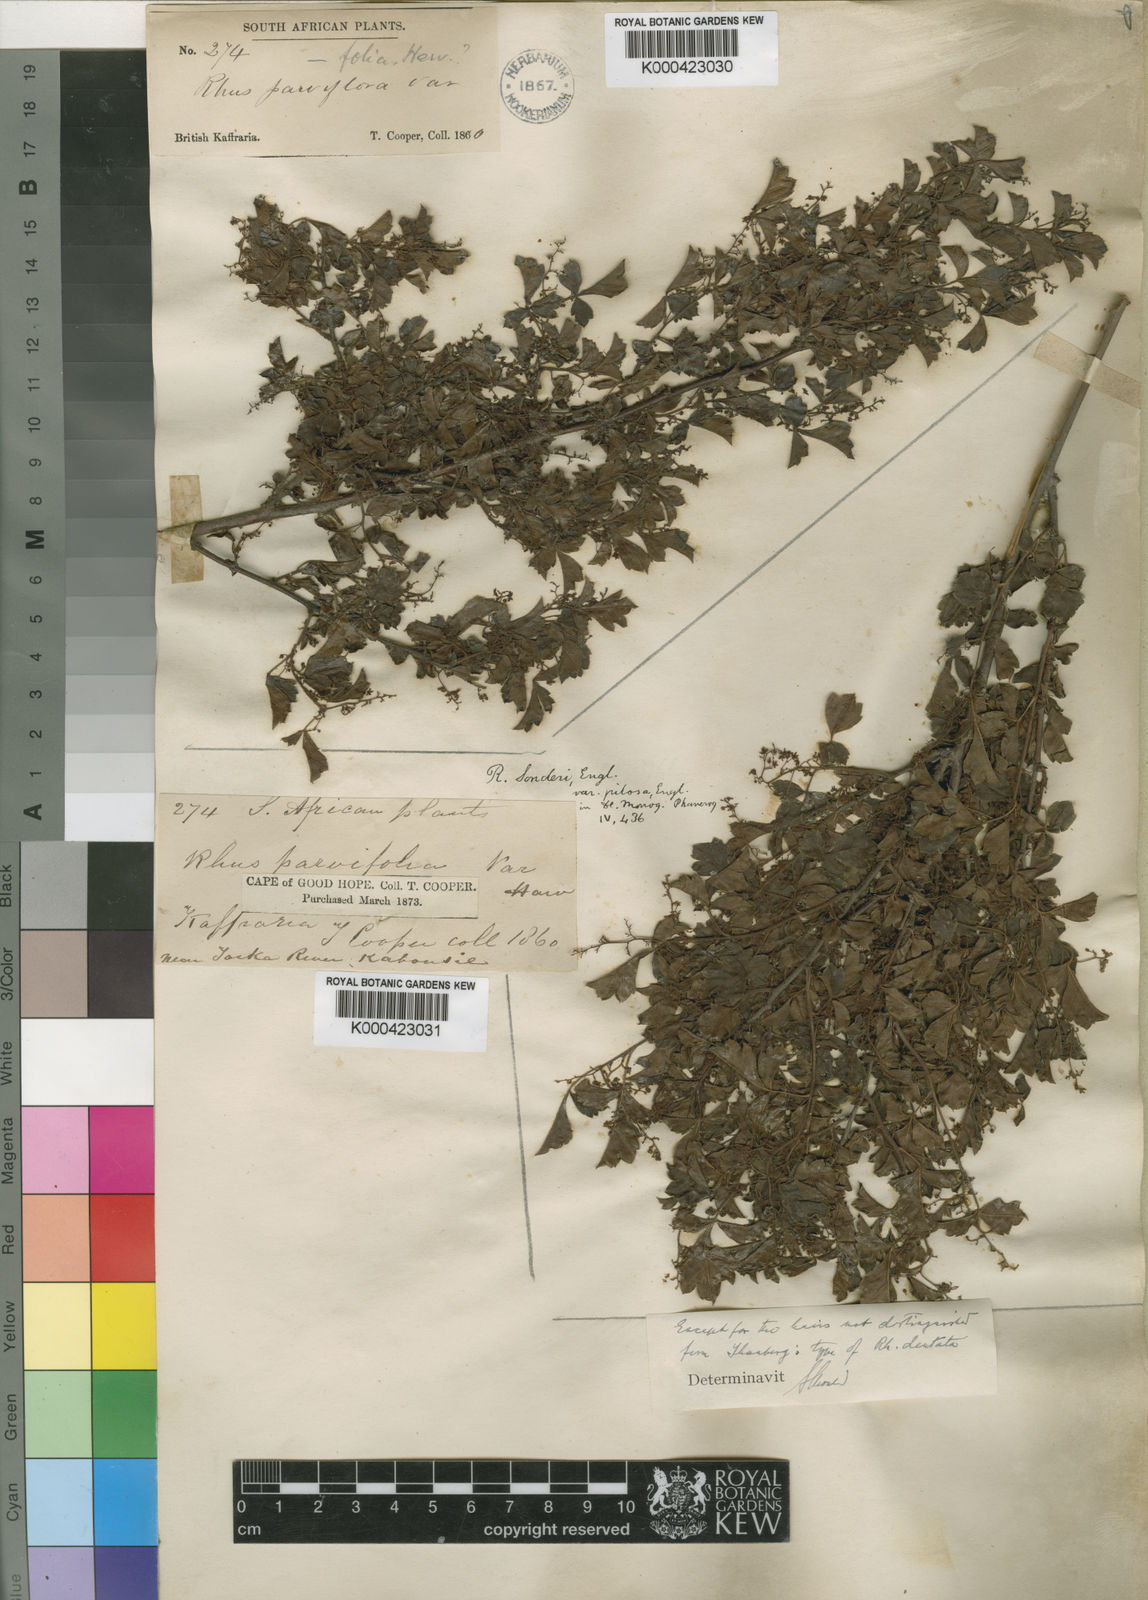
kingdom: Plantae
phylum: Tracheophyta
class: Magnoliopsida
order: Sapindales
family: Anacardiaceae
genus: Searsia
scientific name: Searsia dentata
